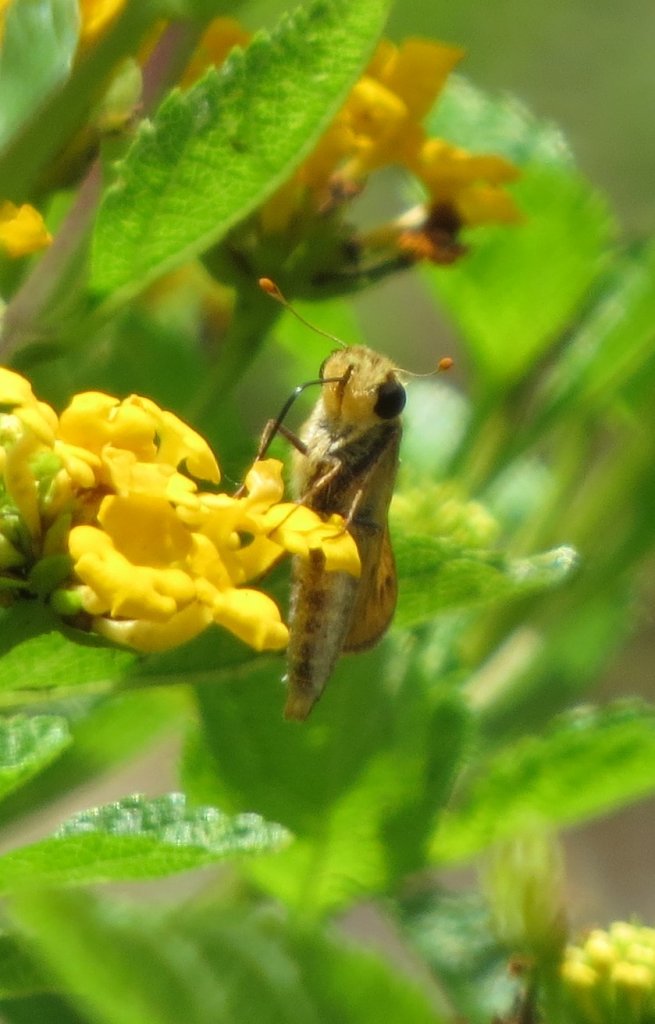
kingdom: Animalia
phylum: Arthropoda
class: Insecta
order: Lepidoptera
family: Hesperiidae
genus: Hylephila
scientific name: Hylephila phyleus
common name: Fiery Skipper
